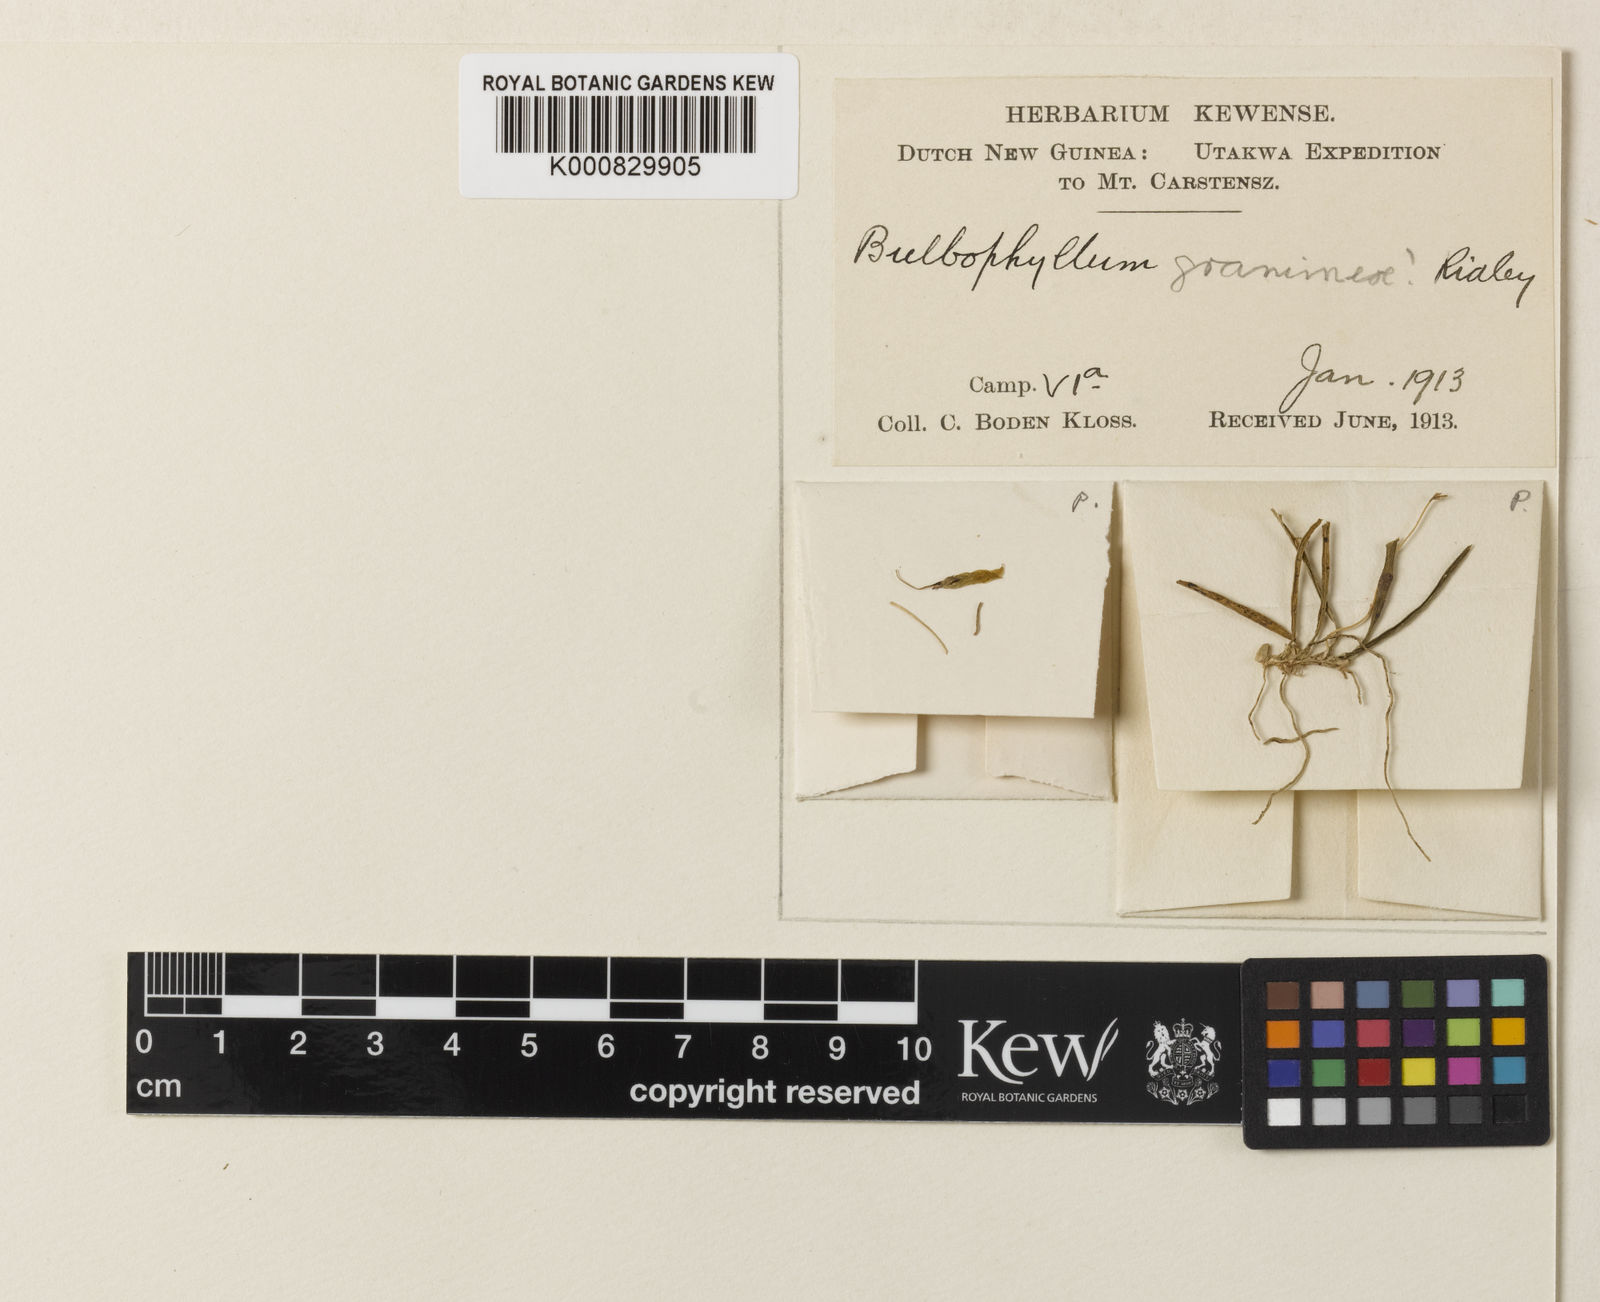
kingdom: Plantae
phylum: Tracheophyta
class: Liliopsida
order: Asparagales
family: Orchidaceae
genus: Bulbophyllum
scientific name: Bulbophyllum gramineum
